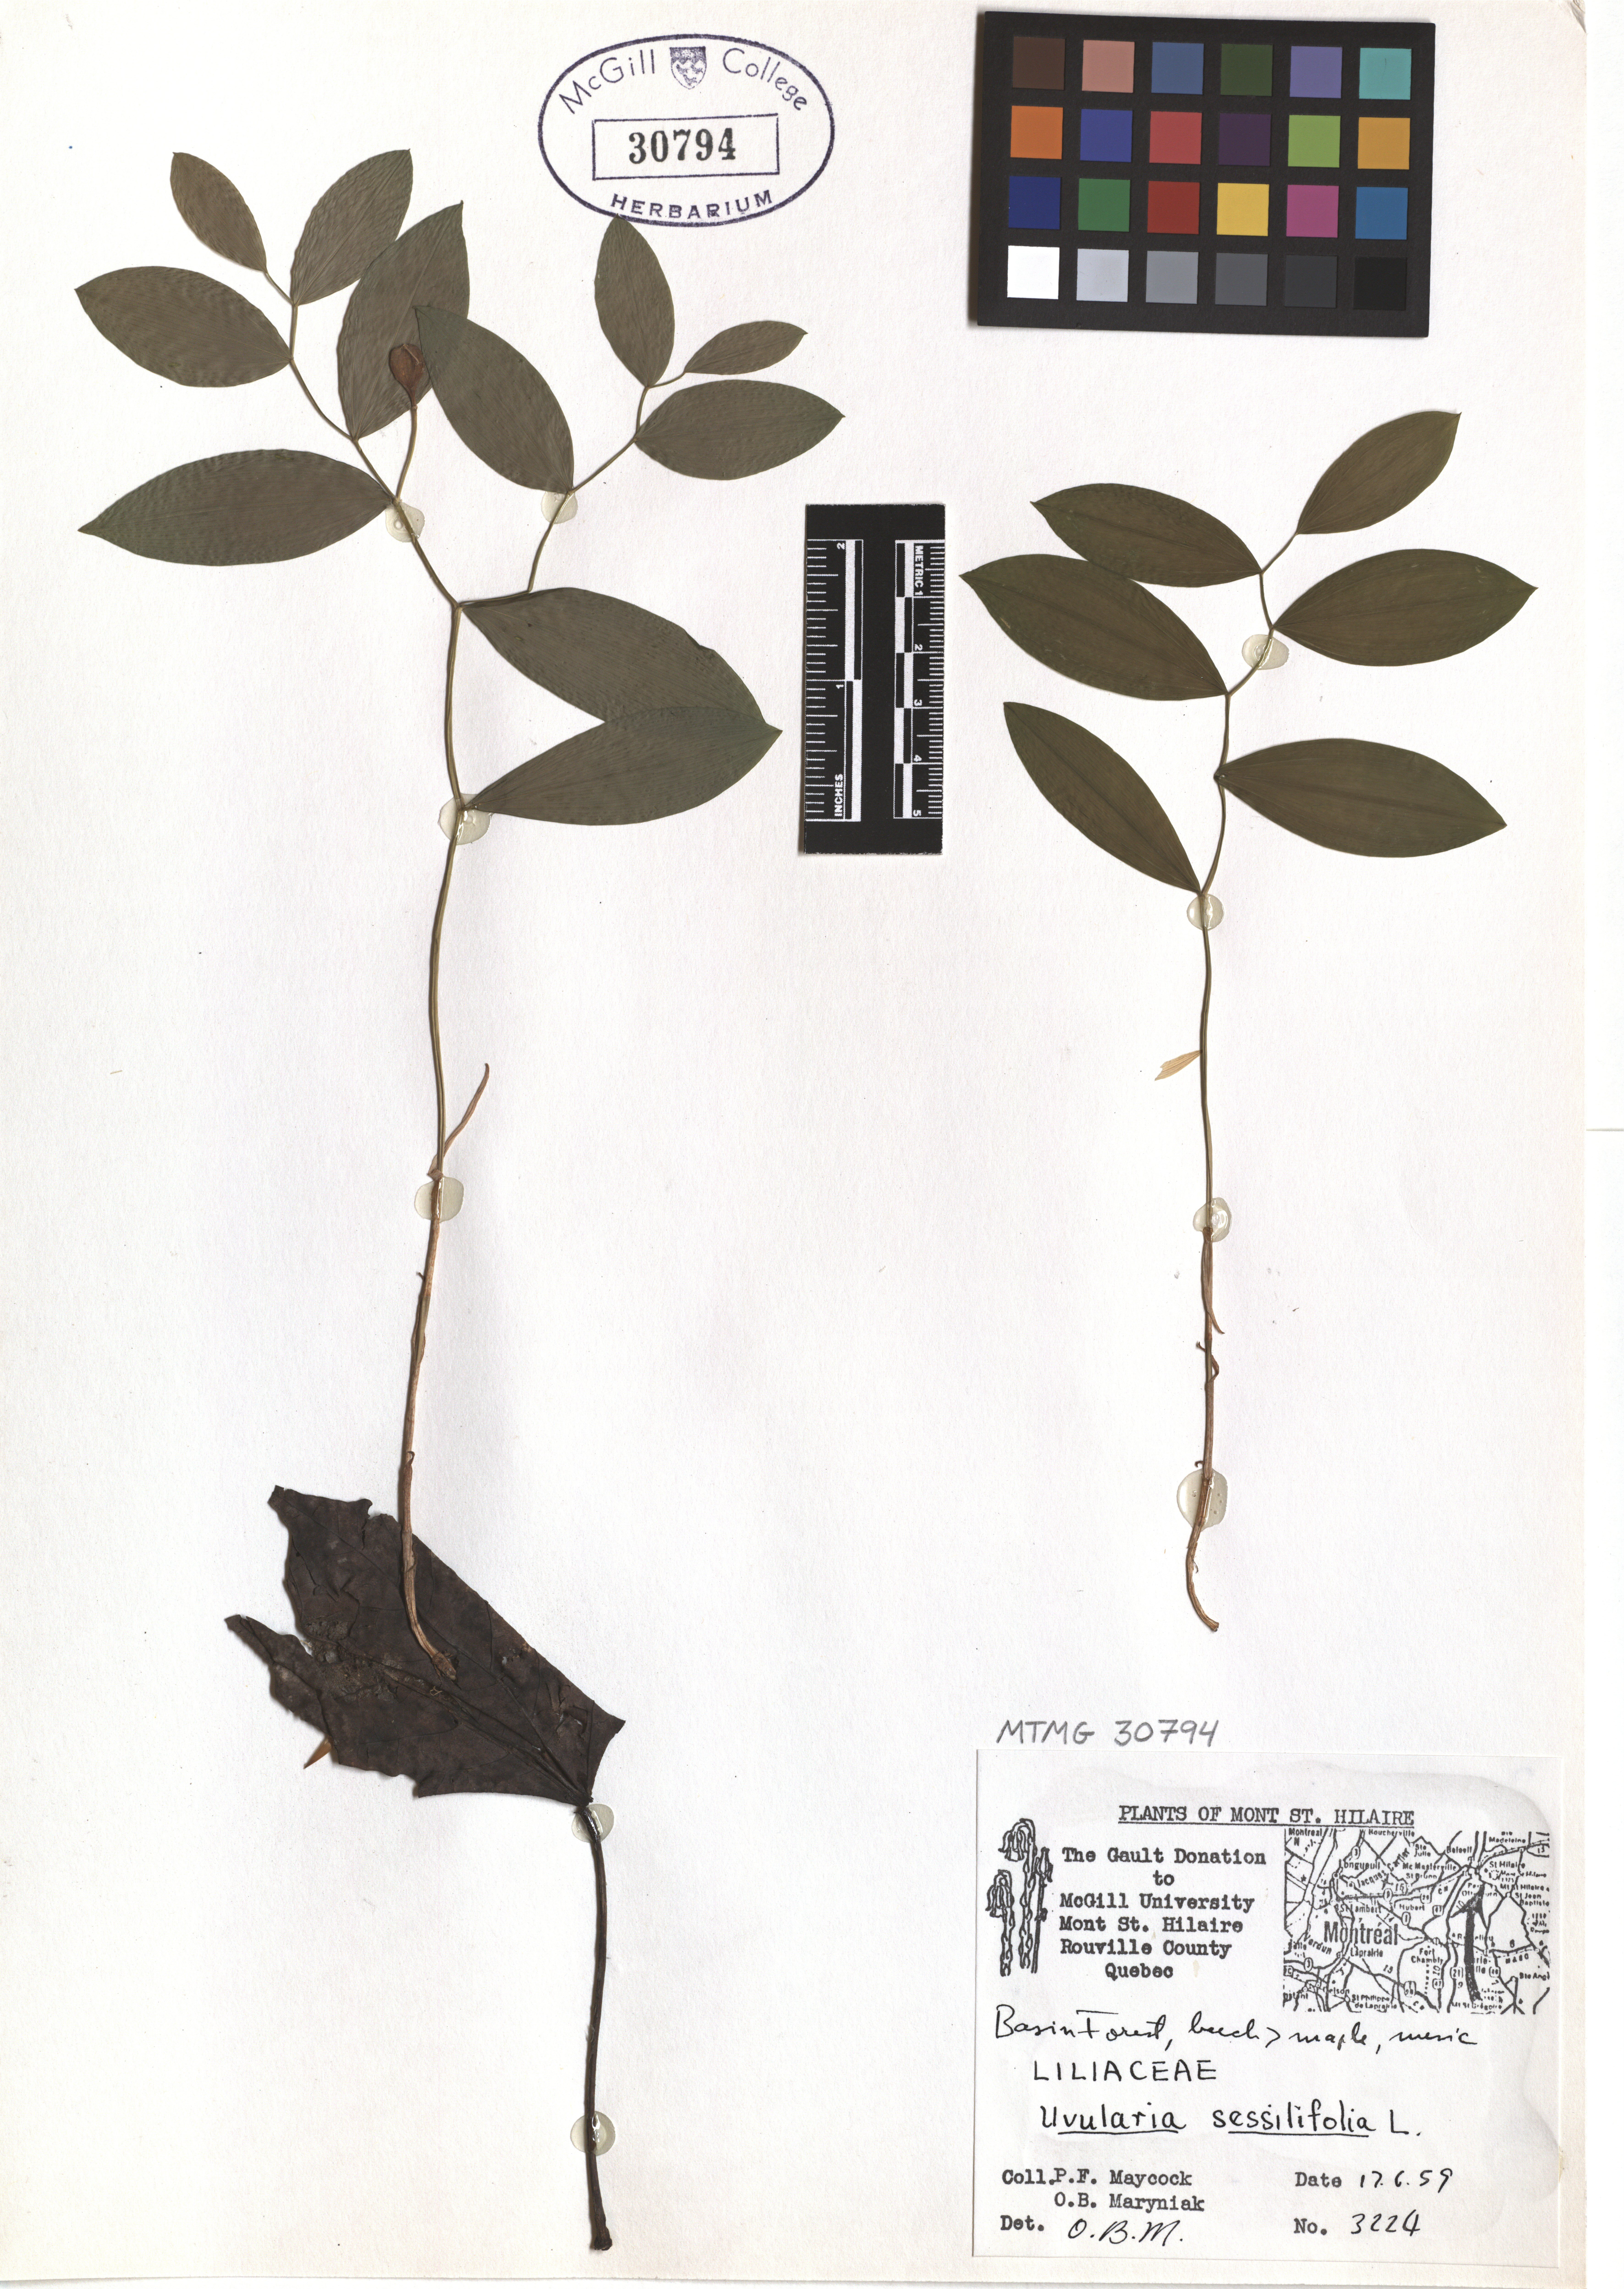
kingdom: Plantae
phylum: Tracheophyta
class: Liliopsida
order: Liliales
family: Colchicaceae
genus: Uvularia
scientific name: Uvularia sessilifolia
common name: Straw-lily
